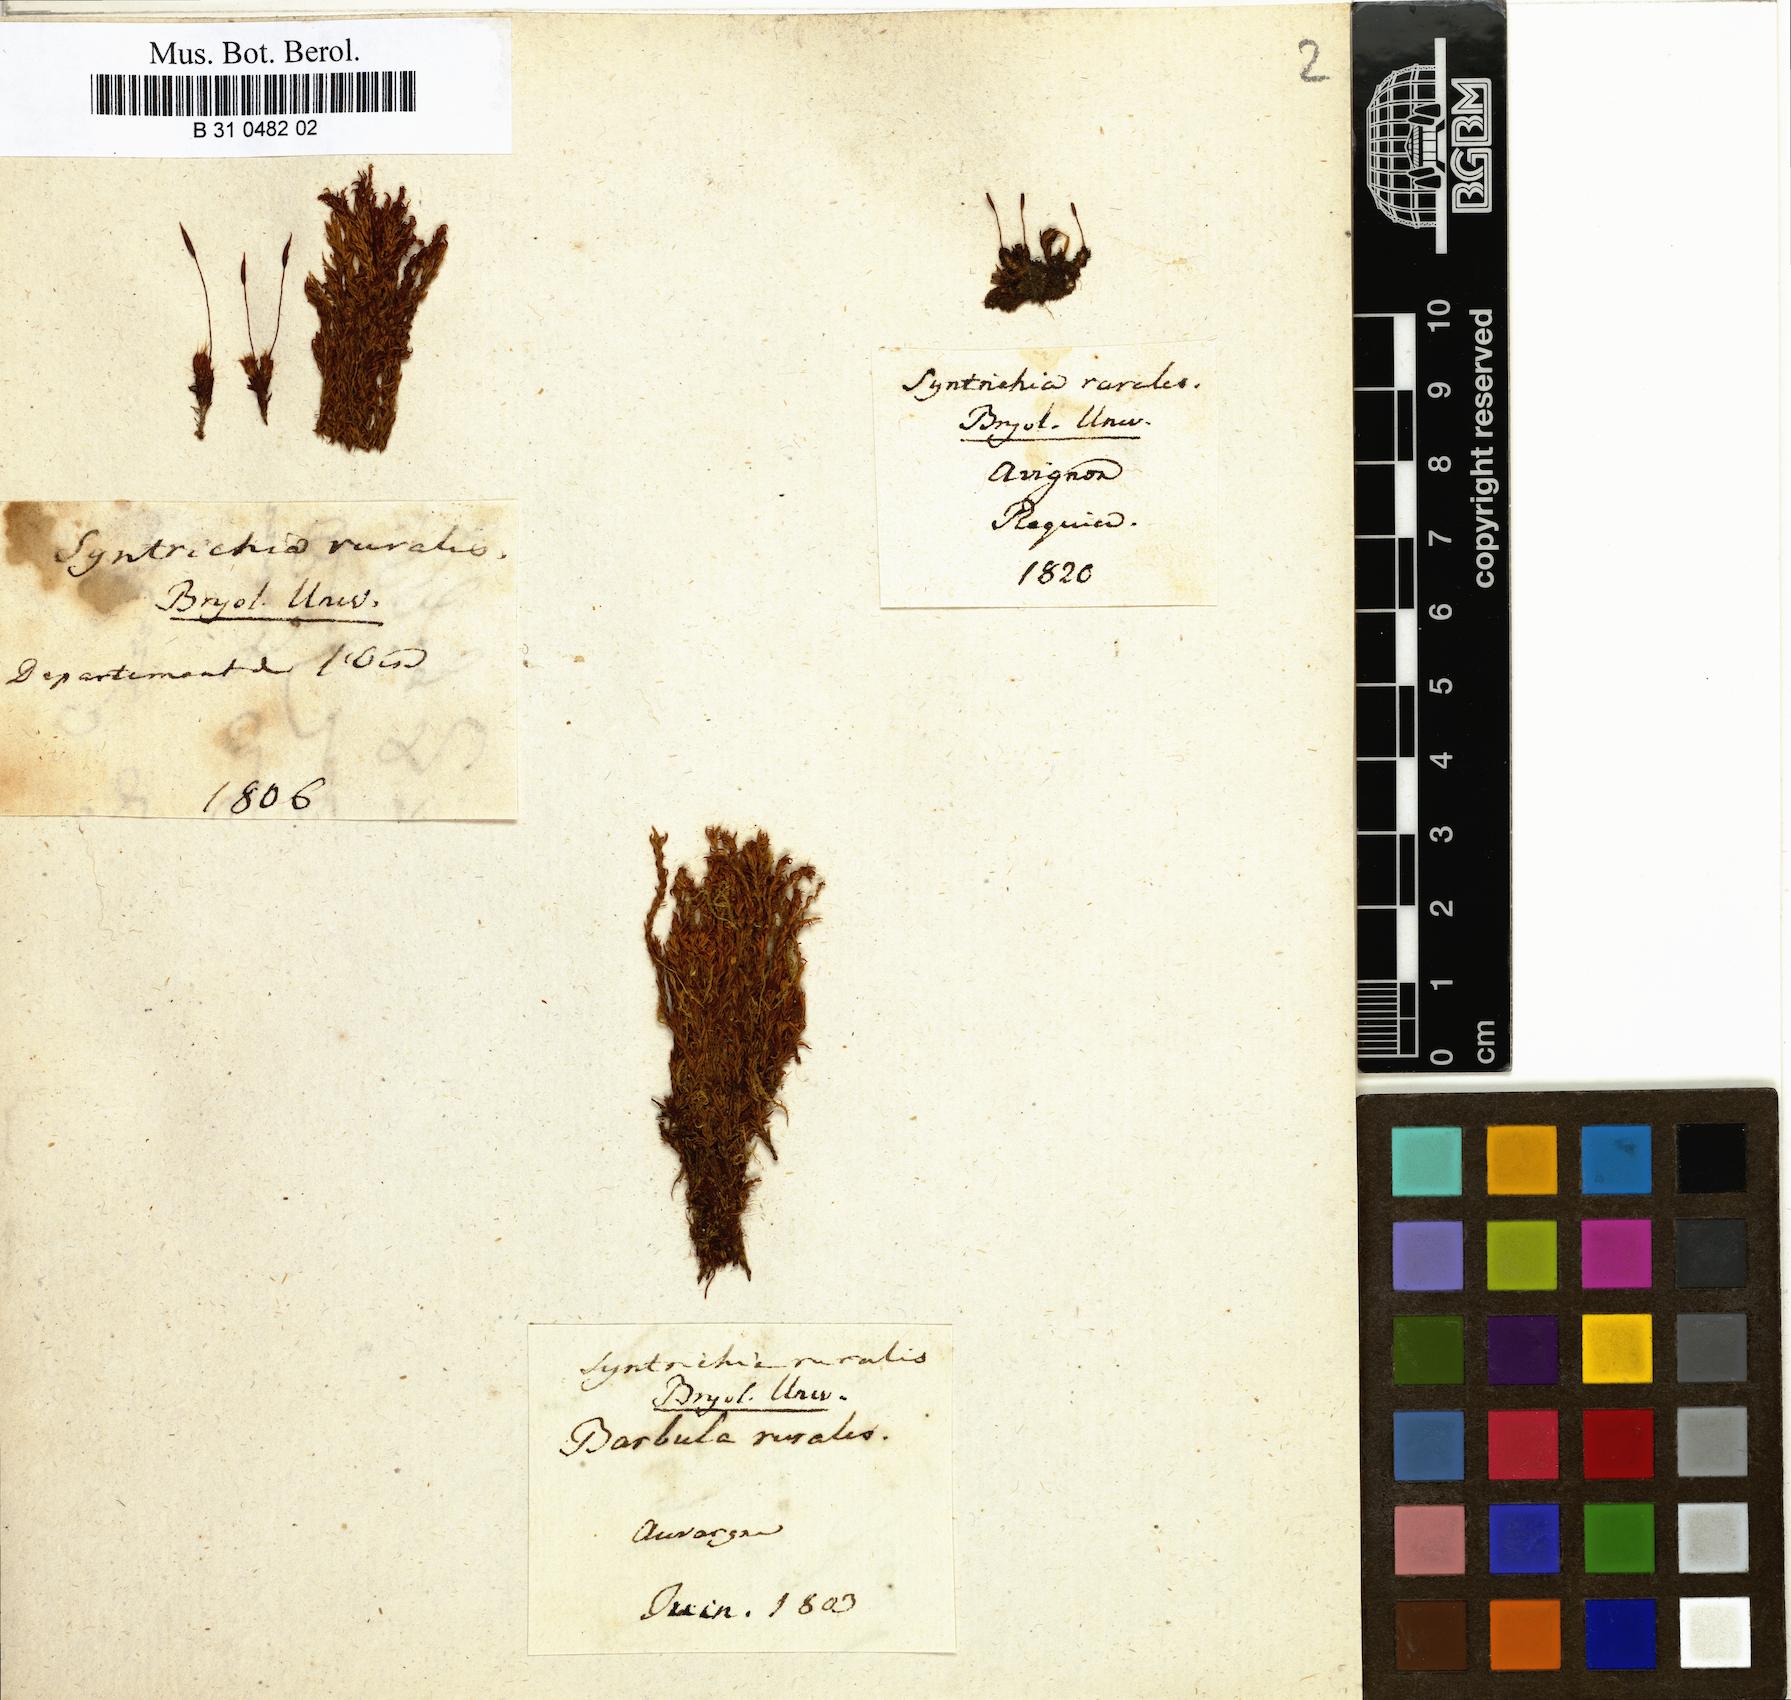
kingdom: Plantae
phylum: Bryophyta
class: Bryopsida
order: Pottiales
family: Pottiaceae
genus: Syntrichia
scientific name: Syntrichia ruralis
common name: Sidewalk screw moss
